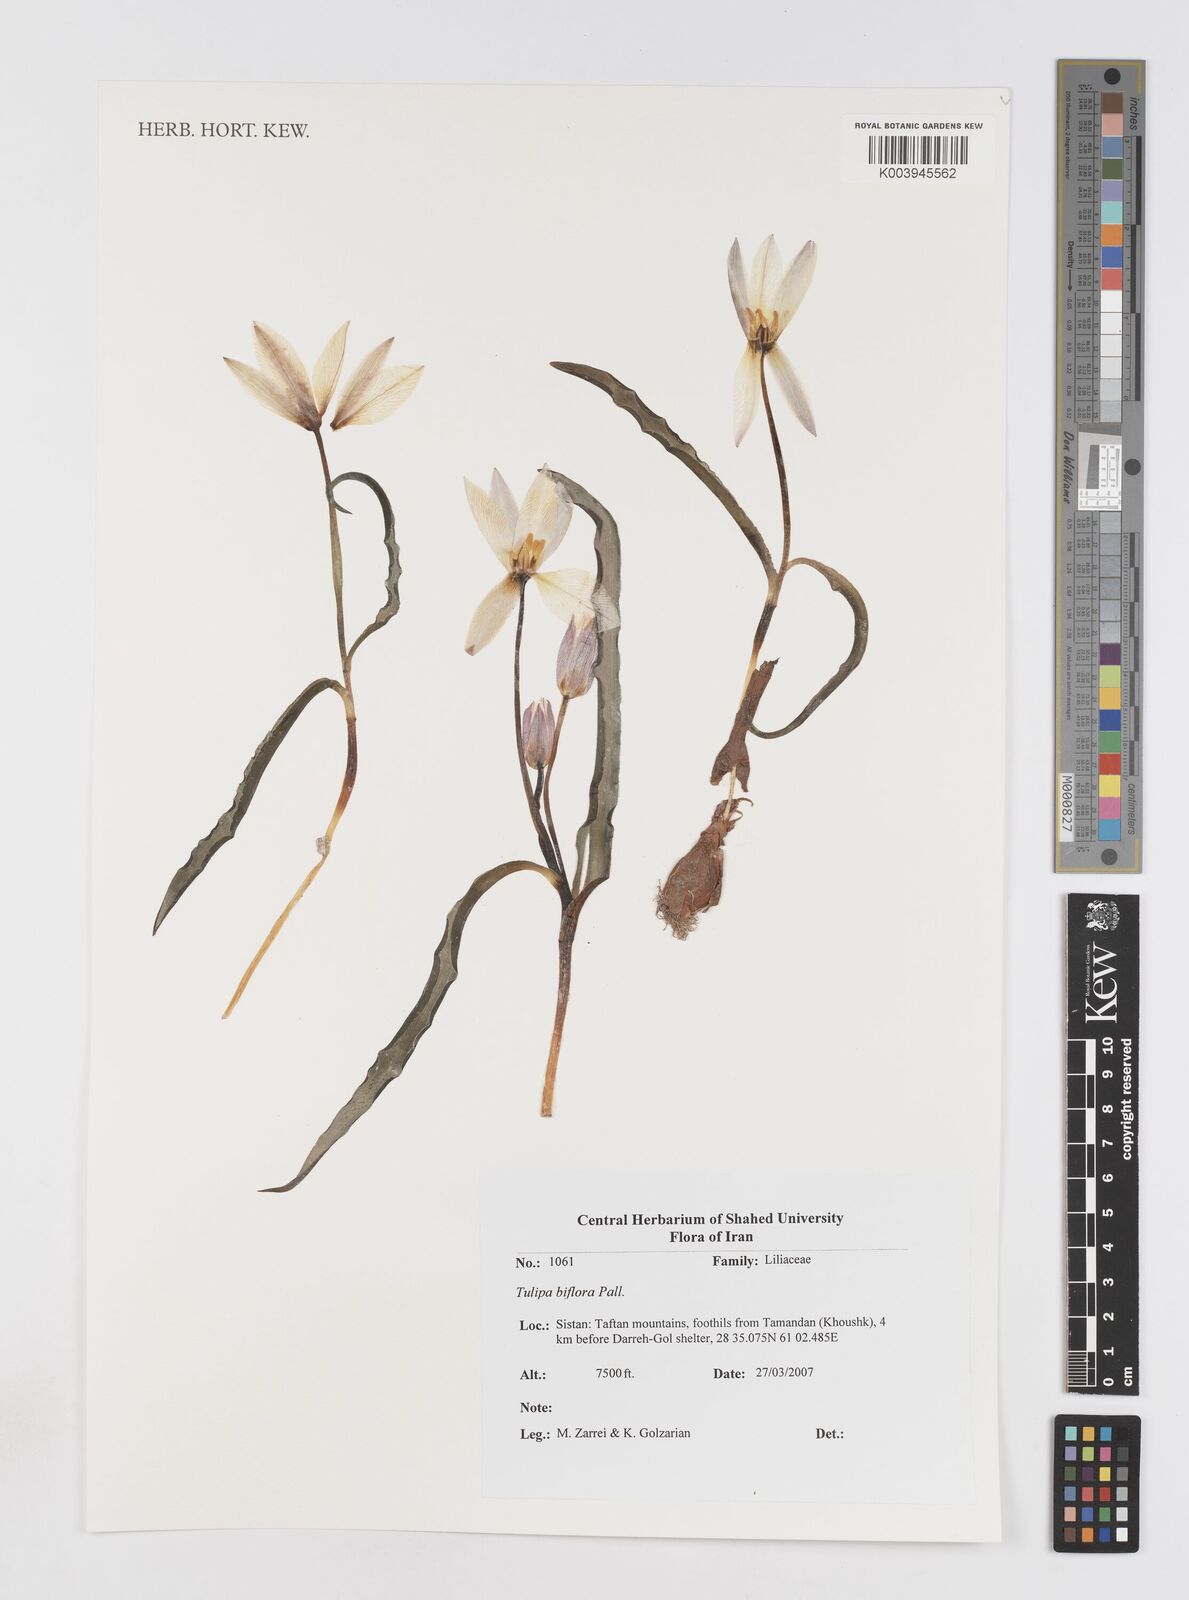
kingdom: Plantae
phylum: Tracheophyta
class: Liliopsida
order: Liliales
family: Liliaceae
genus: Tulipa
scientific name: Tulipa biflora
